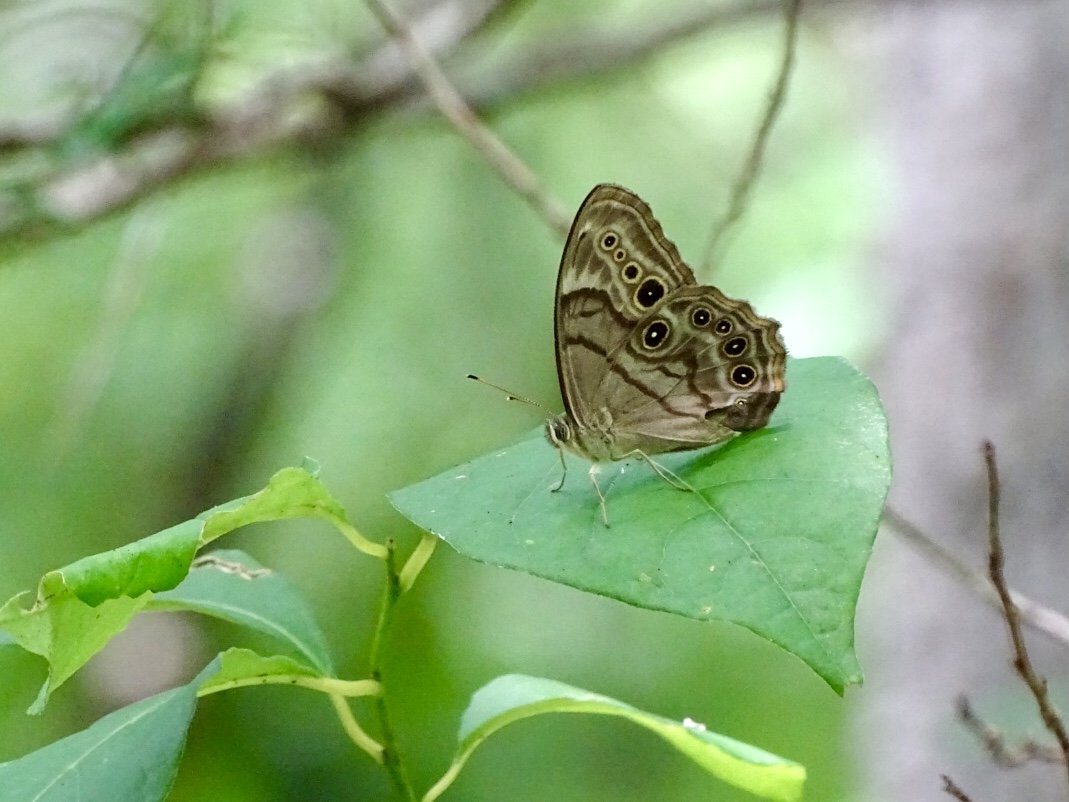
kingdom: Animalia
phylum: Arthropoda
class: Insecta
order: Lepidoptera
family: Nymphalidae
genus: Lethe
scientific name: Lethe anthedon
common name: Northern Pearly-Eye
